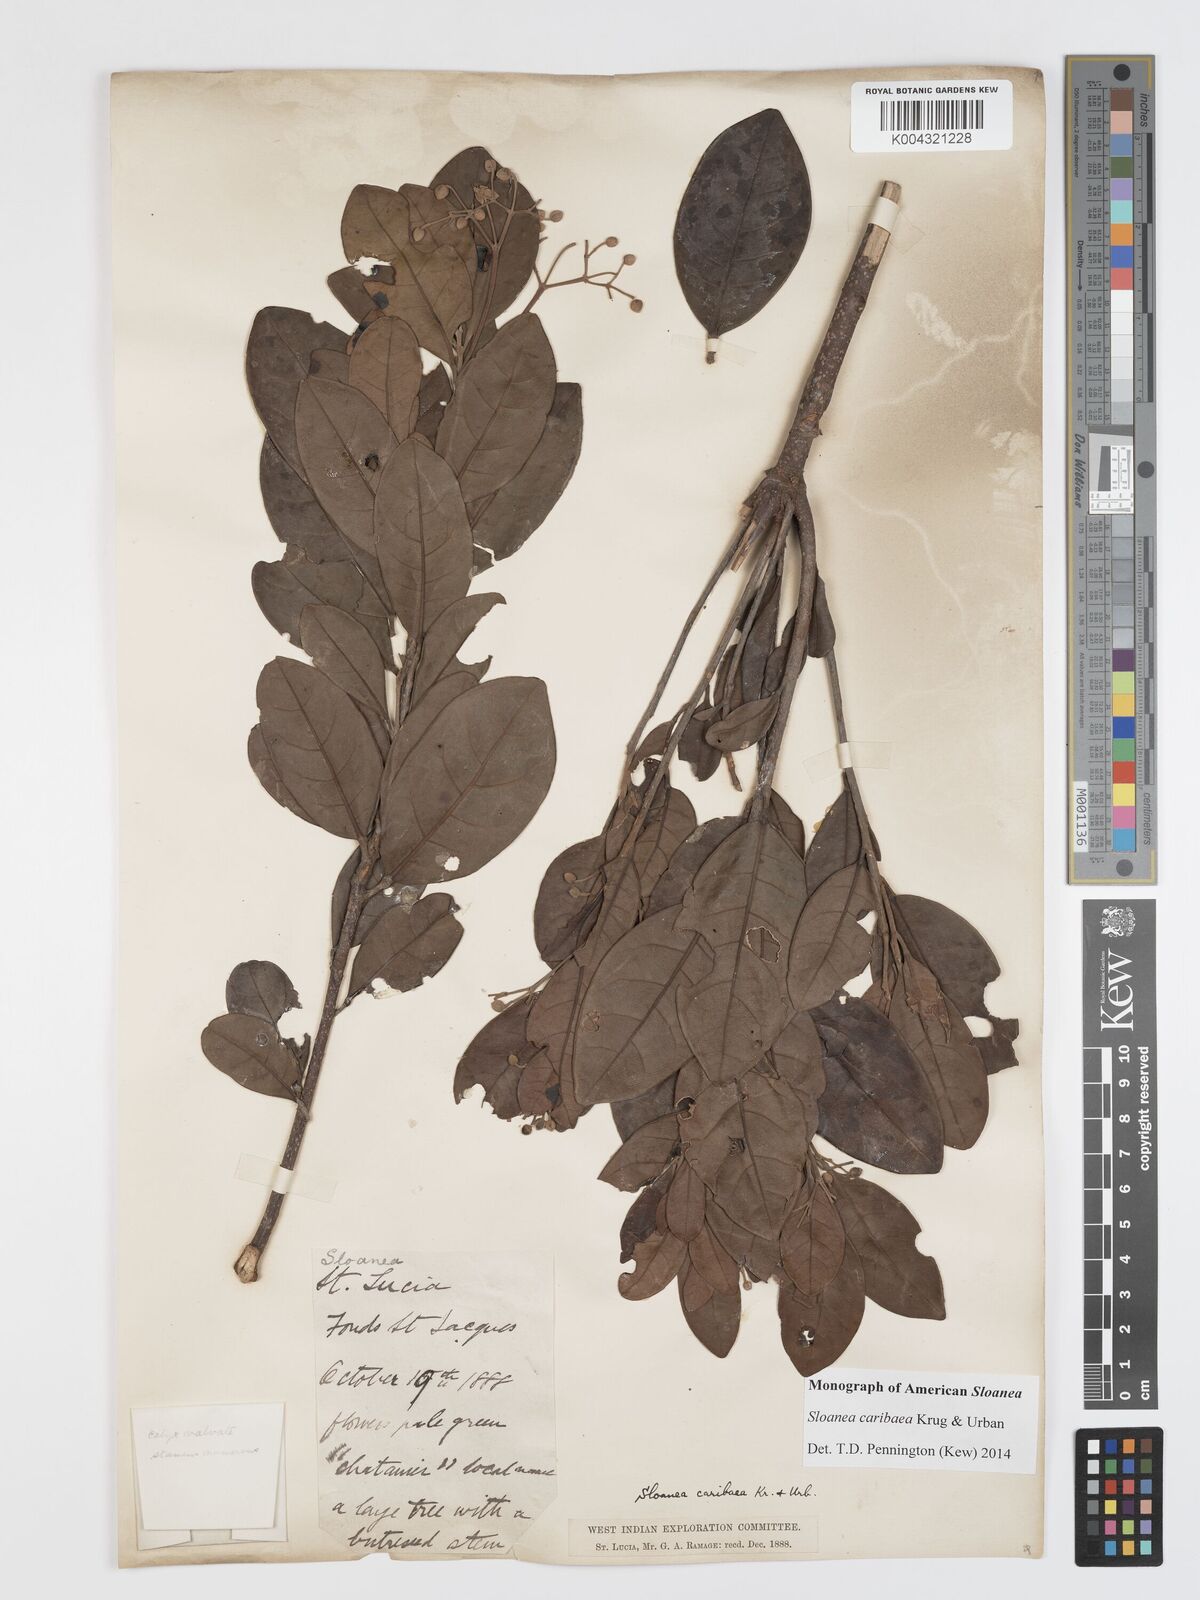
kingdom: Plantae
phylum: Tracheophyta
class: Magnoliopsida
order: Oxalidales
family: Elaeocarpaceae
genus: Sloanea
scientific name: Sloanea caribaea
